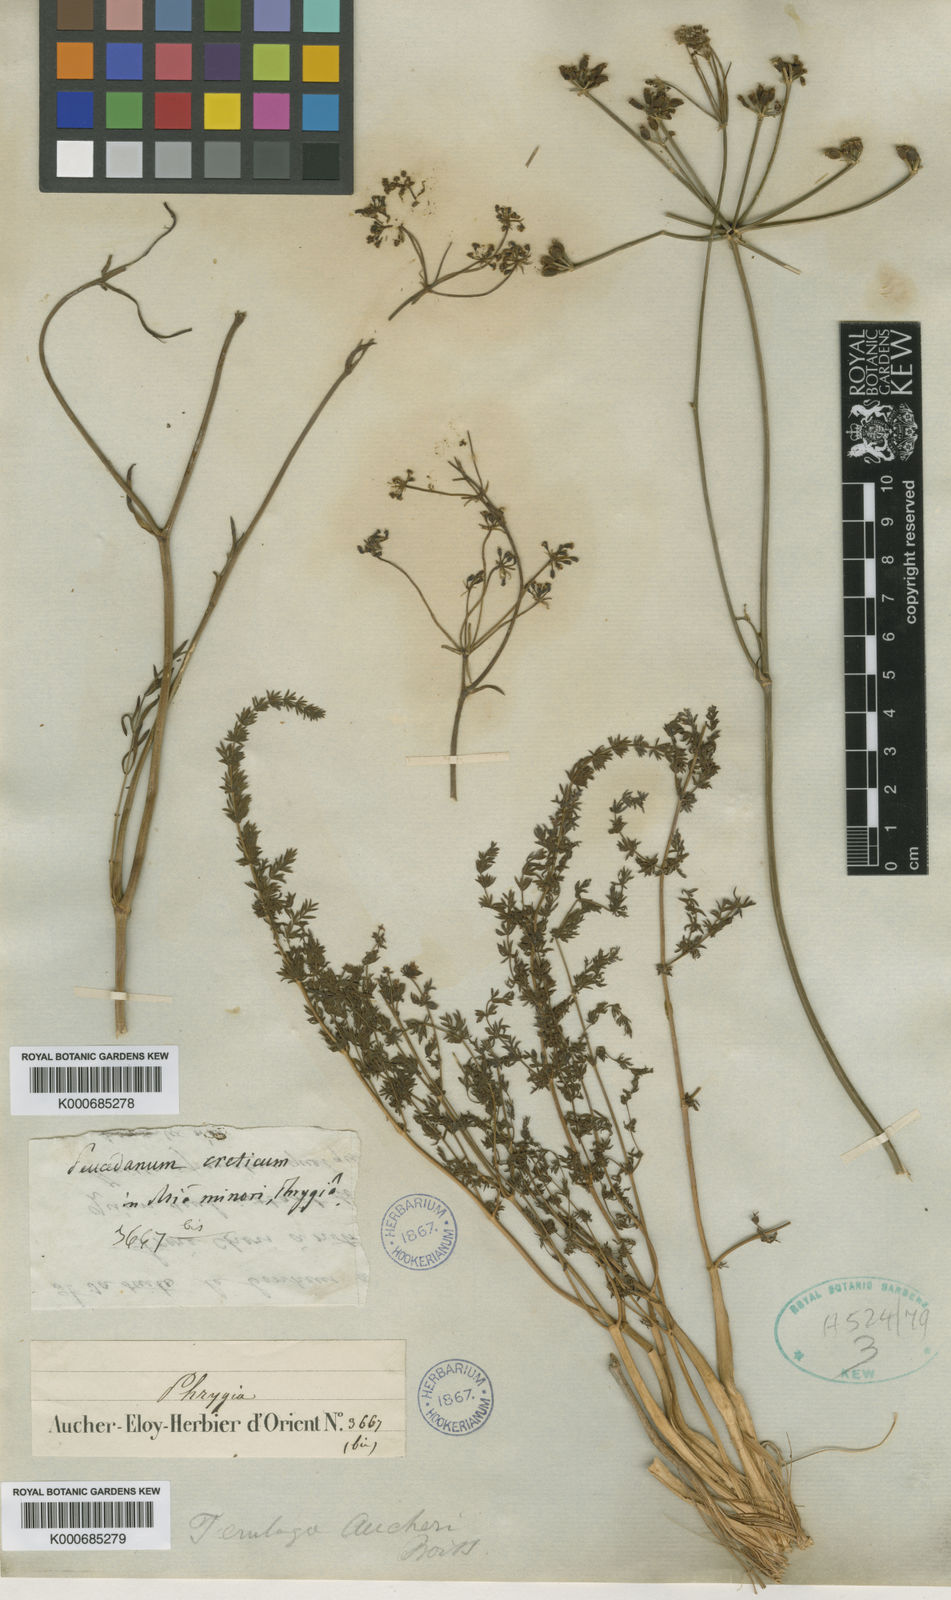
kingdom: Plantae
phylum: Tracheophyta
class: Magnoliopsida
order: Apiales
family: Apiaceae
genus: Ferulago
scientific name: Ferulago aucheri
